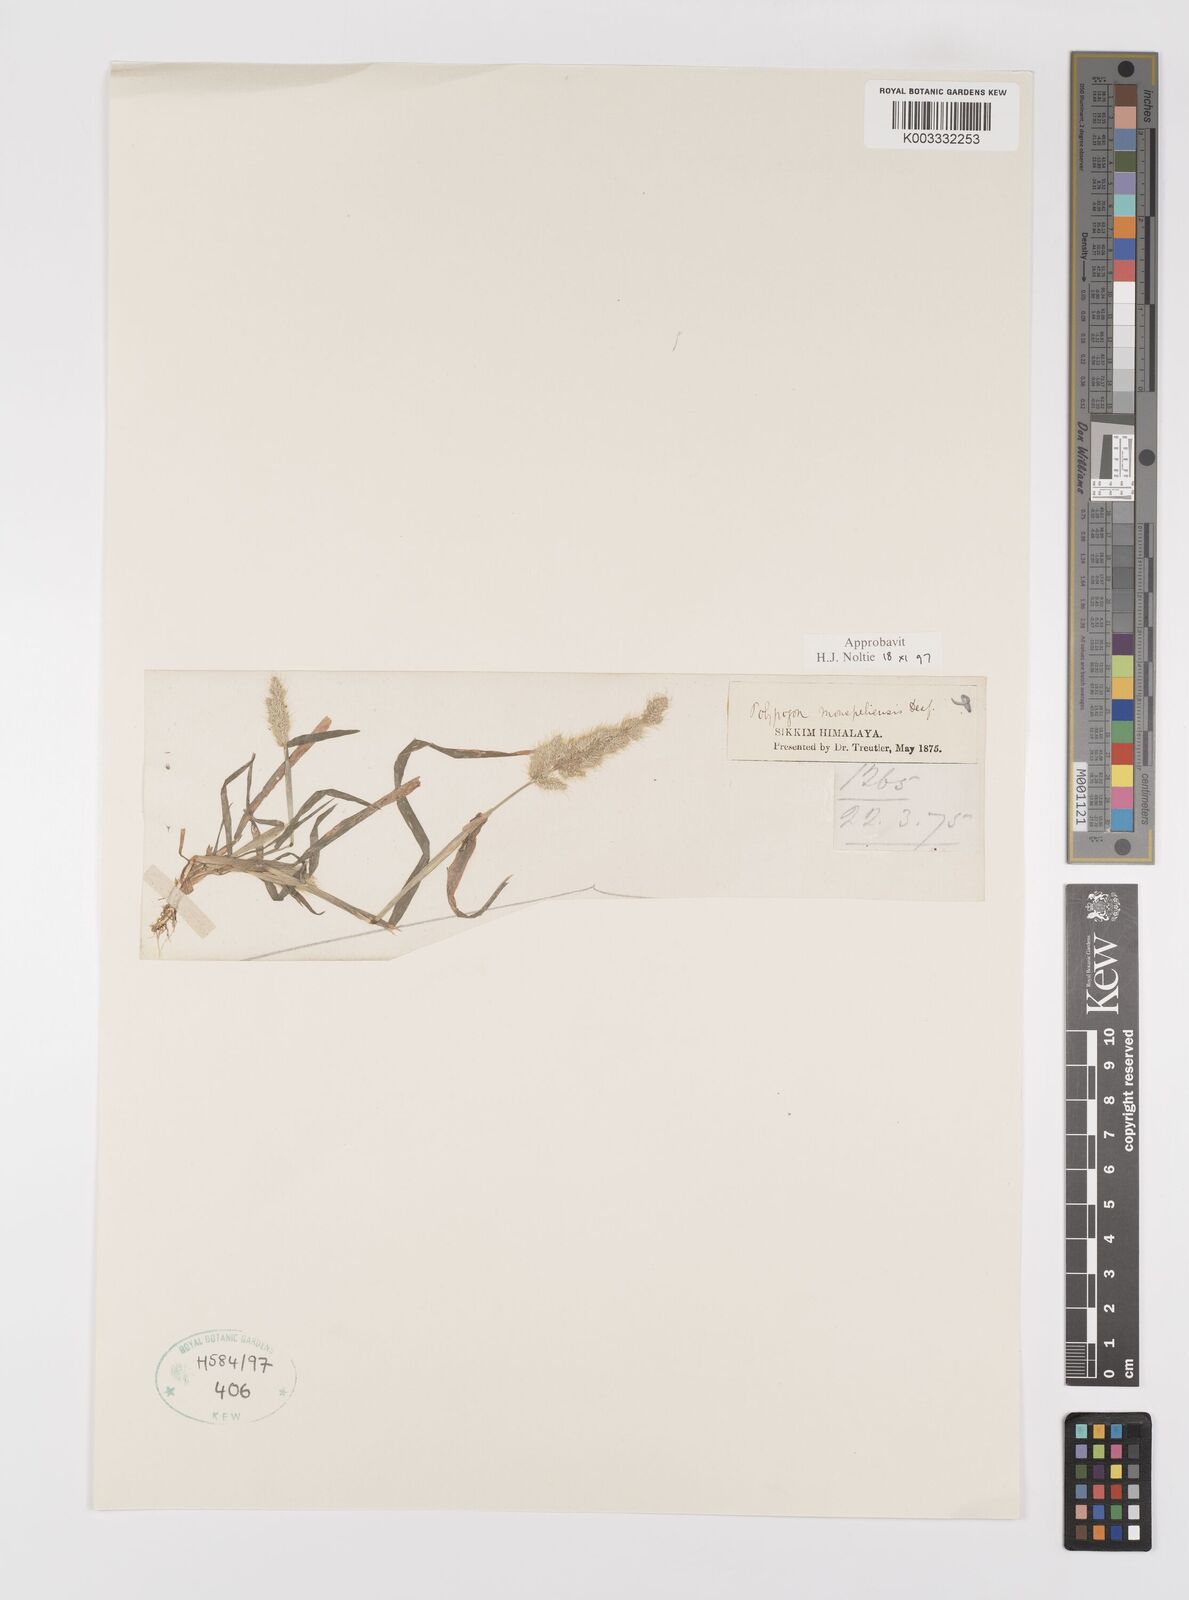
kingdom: Plantae
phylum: Tracheophyta
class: Liliopsida
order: Poales
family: Poaceae
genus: Polypogon
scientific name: Polypogon monspeliensis
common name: Annual rabbitsfoot grass
